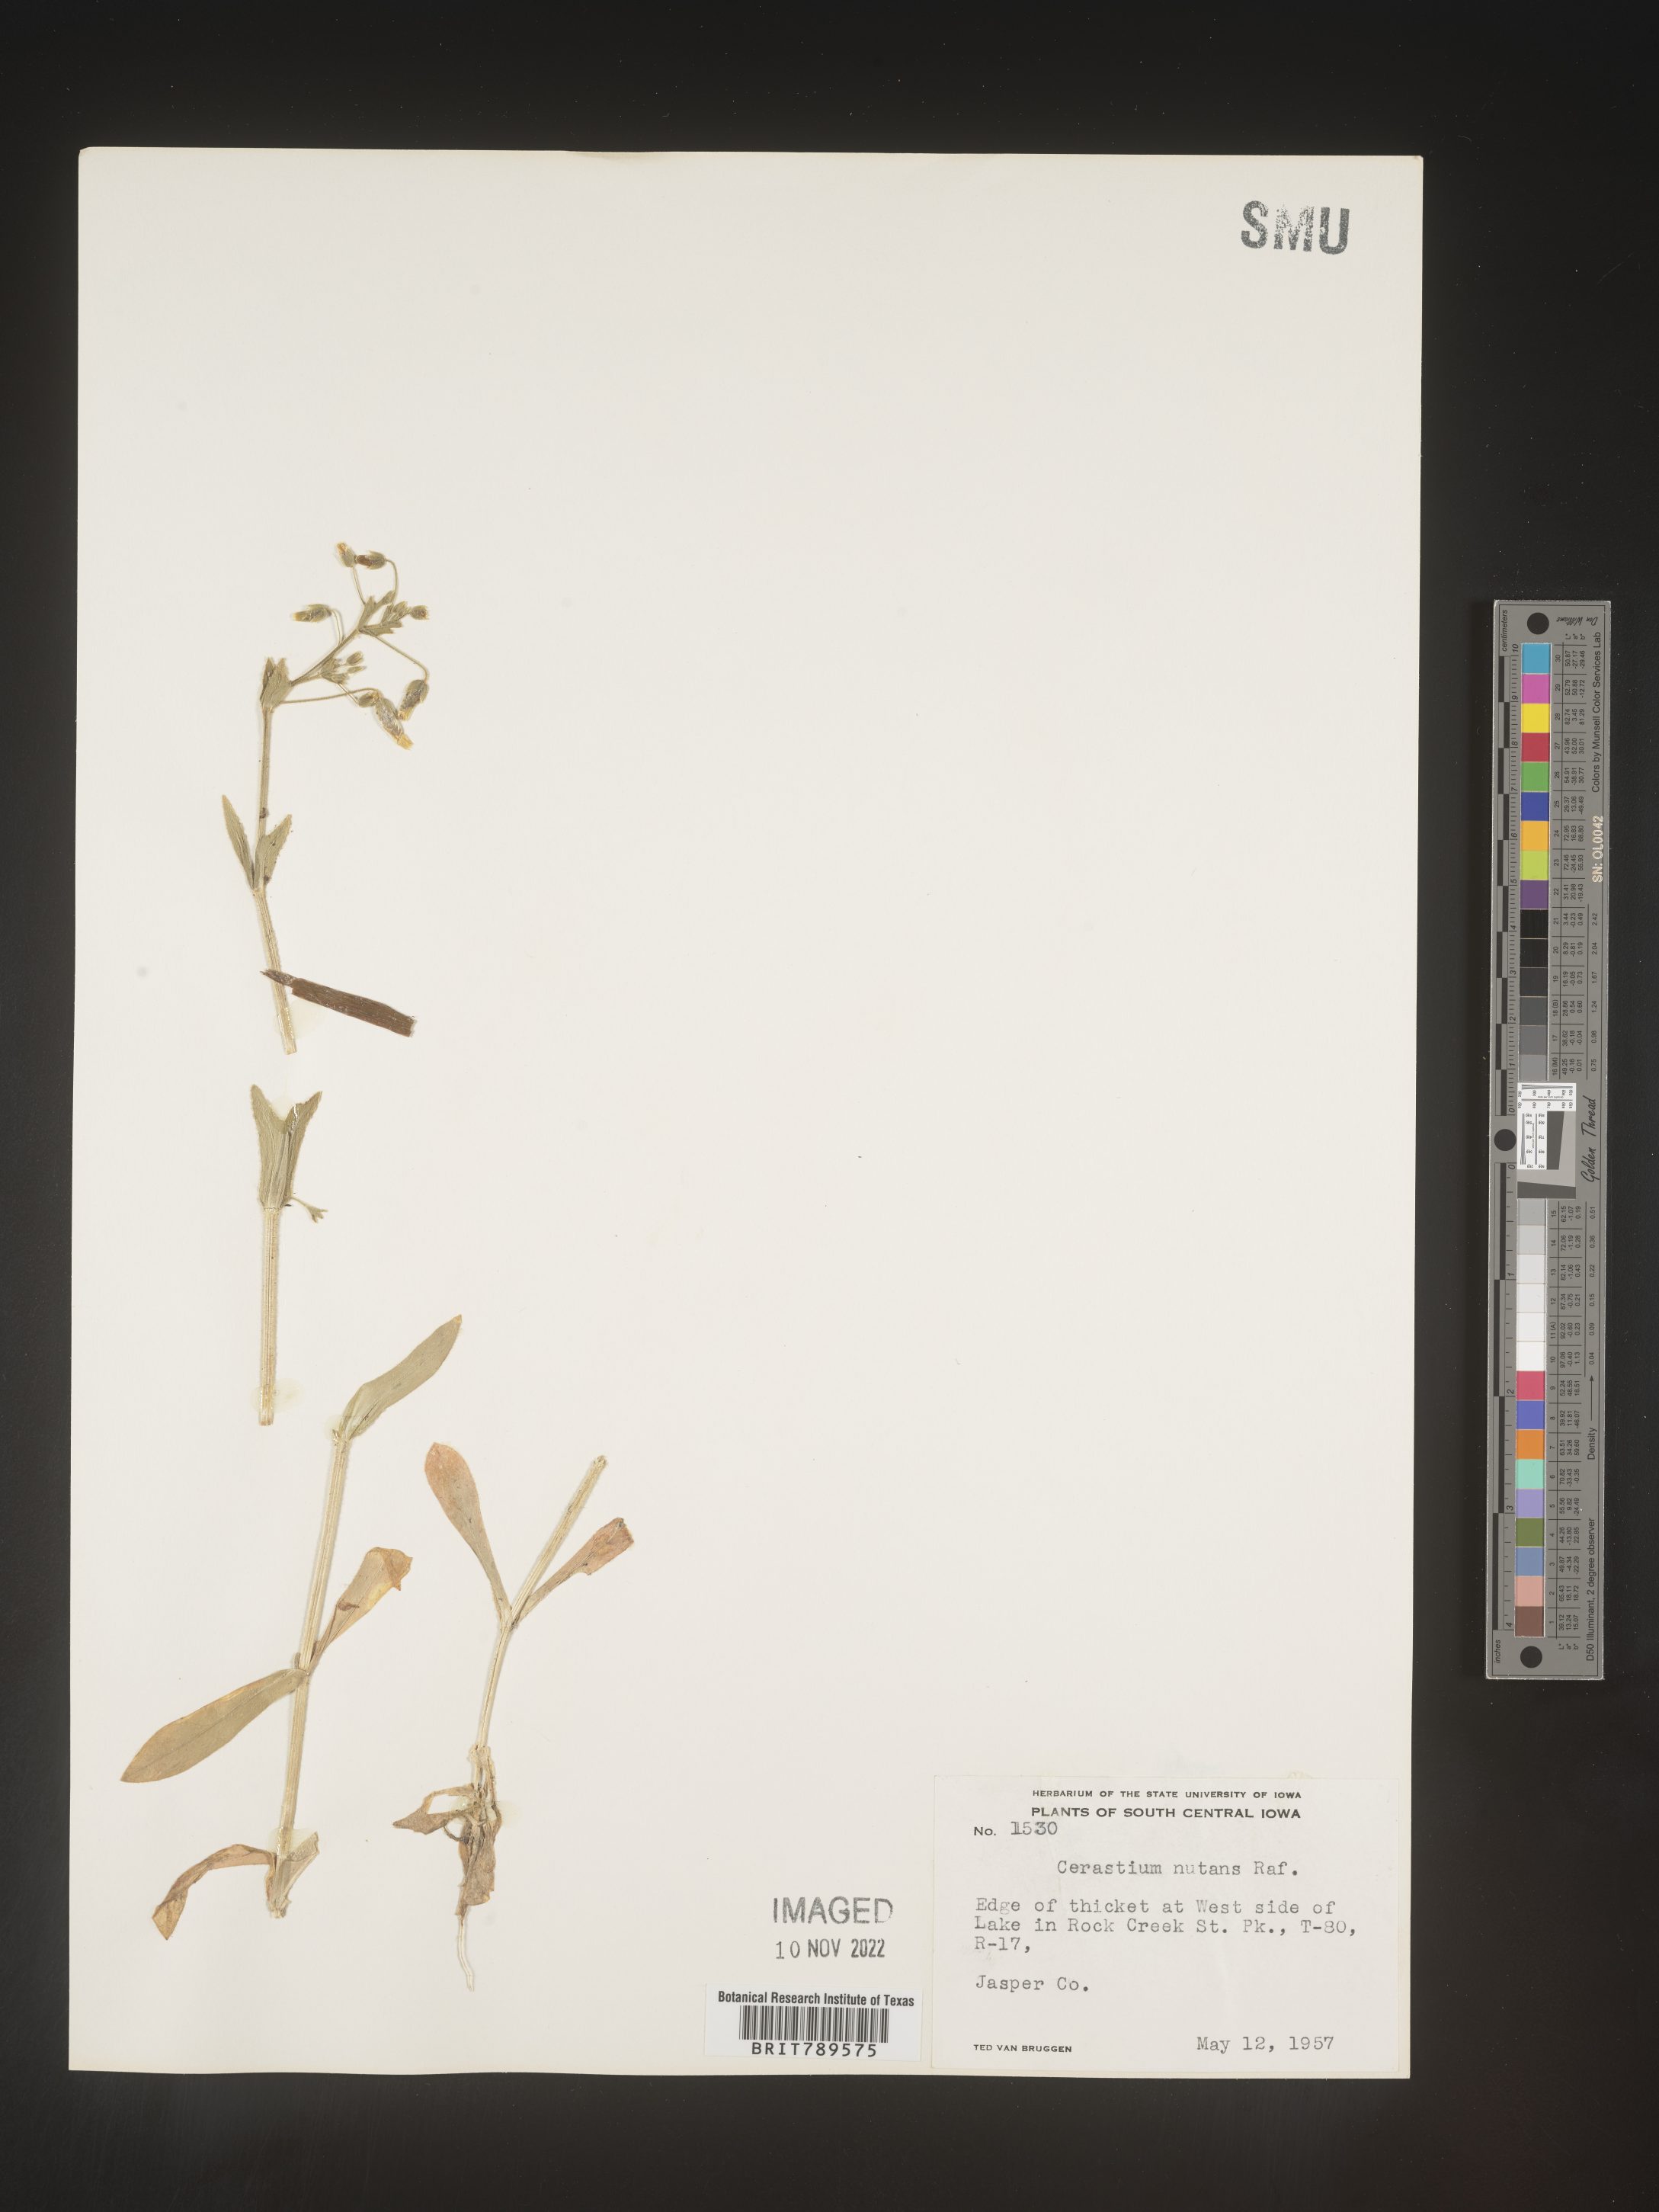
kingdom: Plantae
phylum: Tracheophyta
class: Magnoliopsida
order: Caryophyllales
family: Caryophyllaceae
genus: Cerastium
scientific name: Cerastium nutans
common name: Long-stalked chickweed
